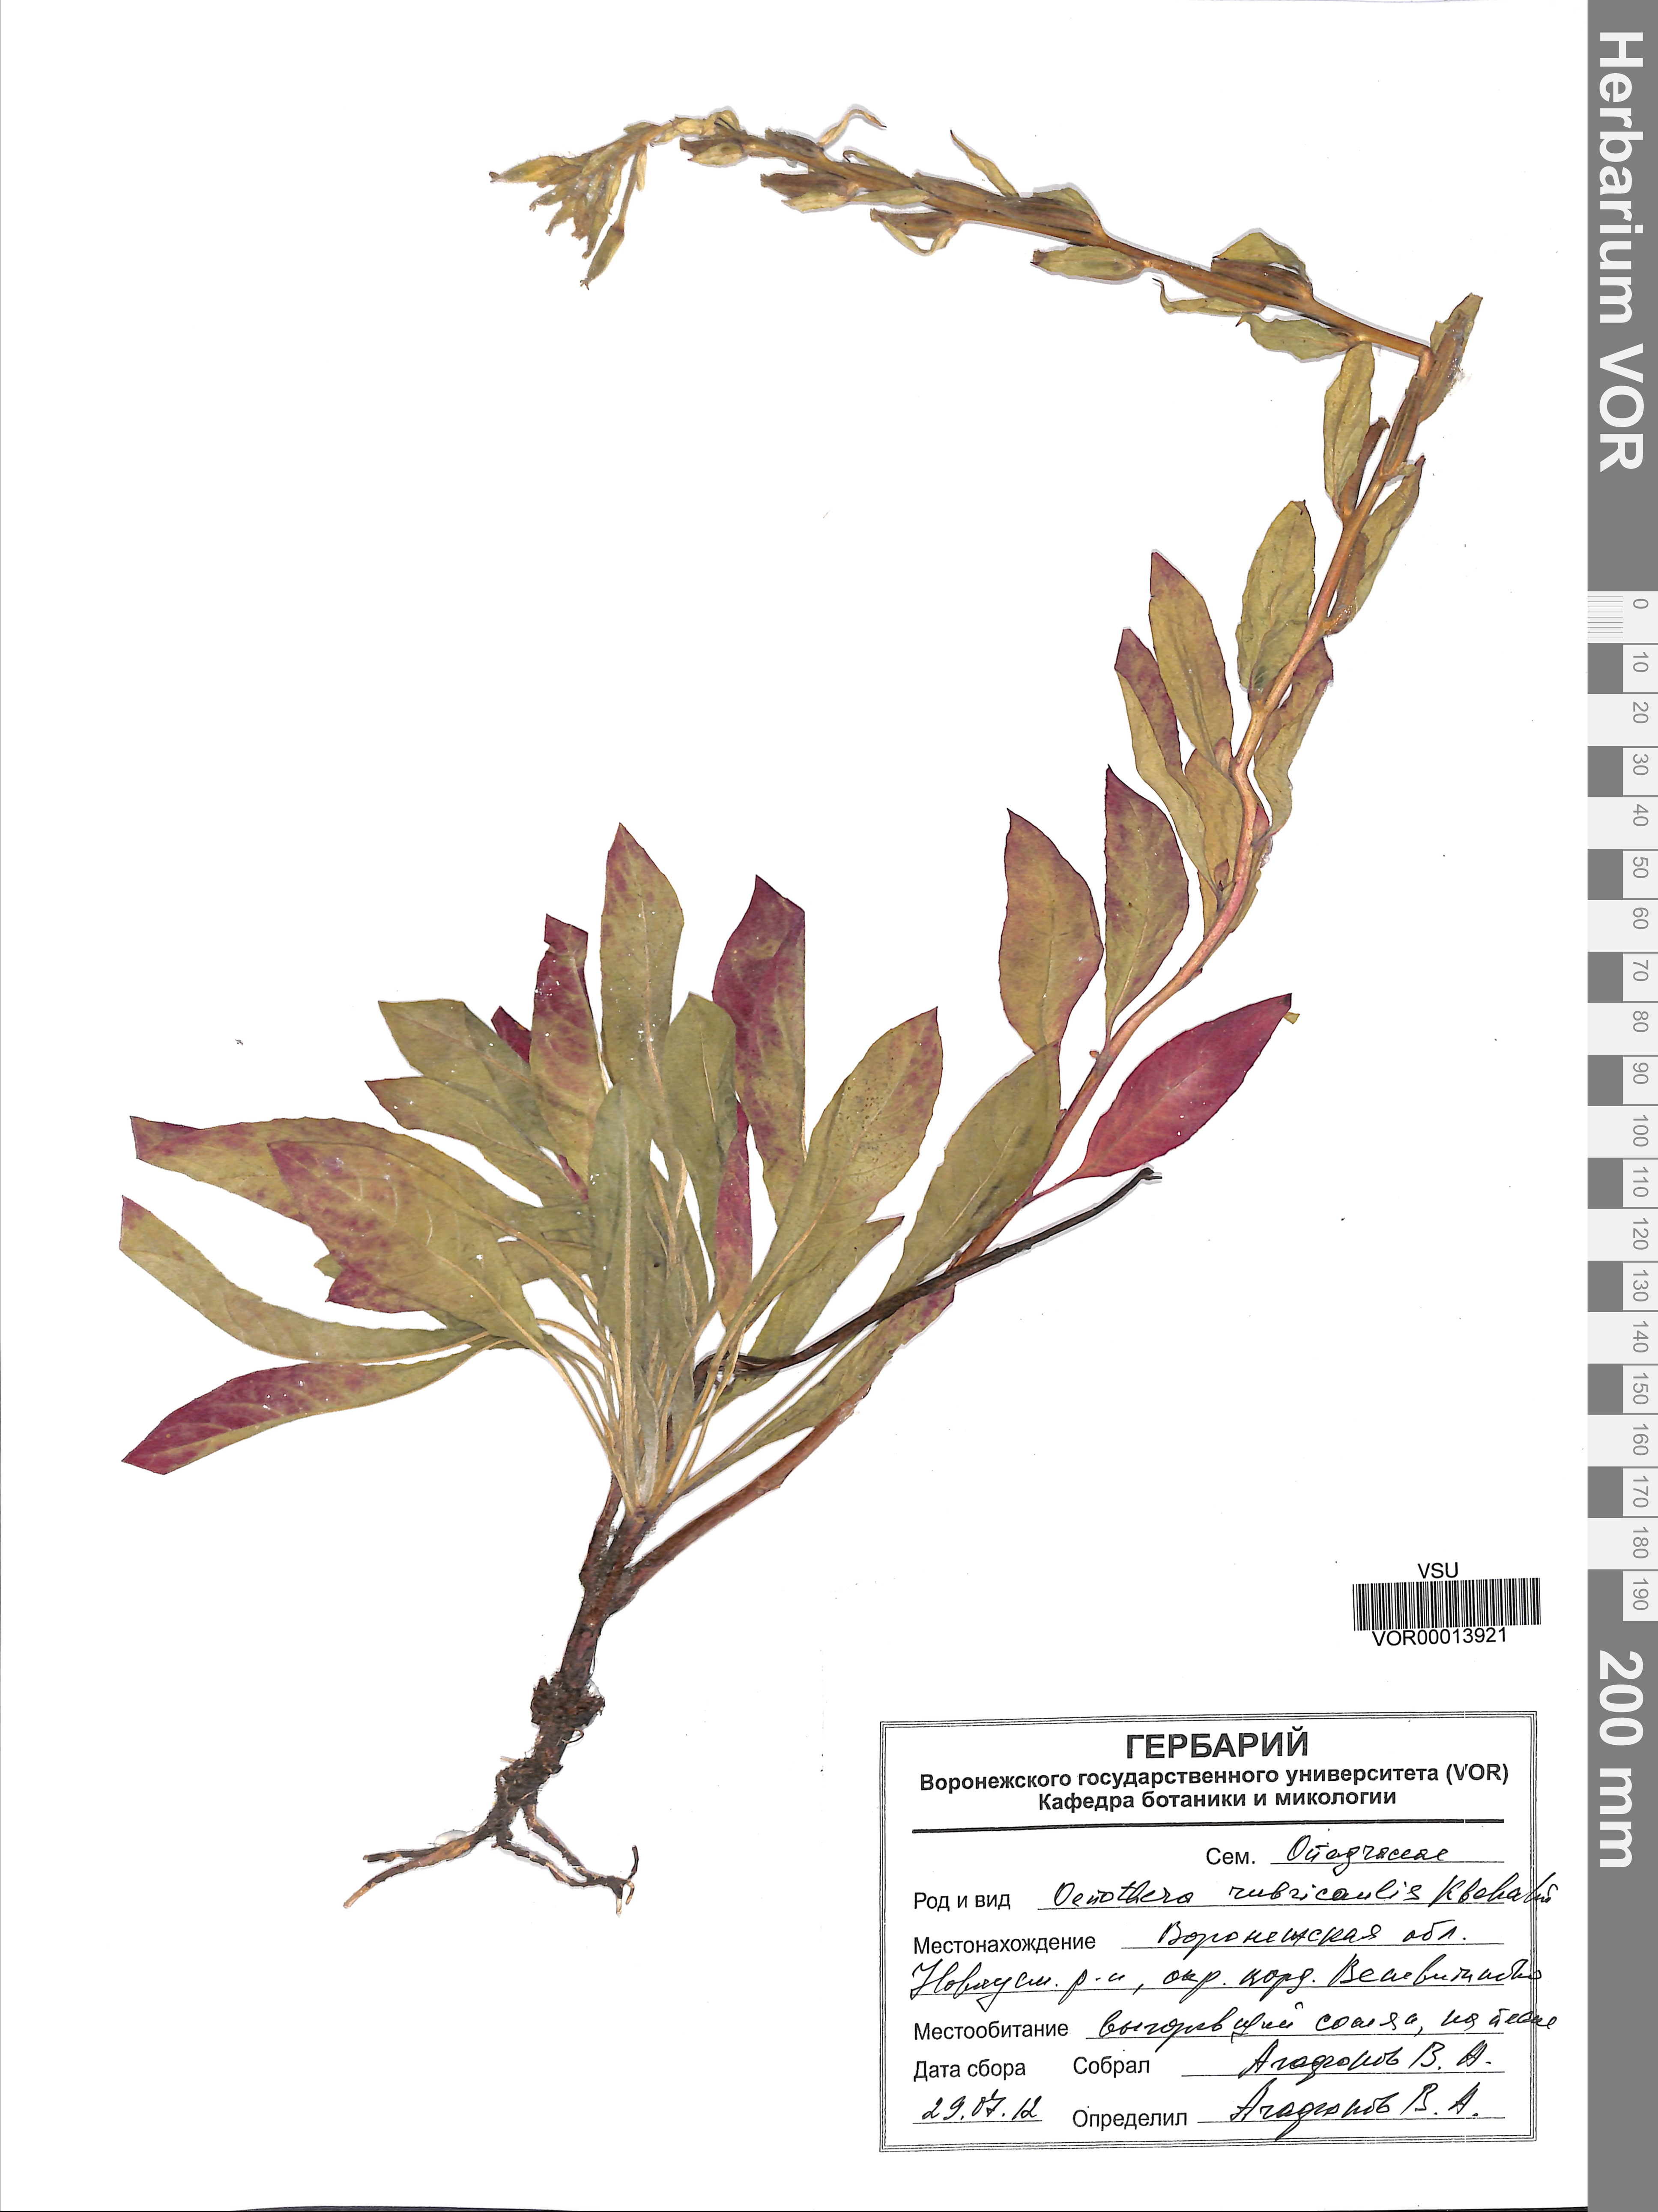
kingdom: Plantae
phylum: Tracheophyta
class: Magnoliopsida
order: Myrtales
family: Onagraceae
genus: Oenothera
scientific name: Oenothera rubricaulis
